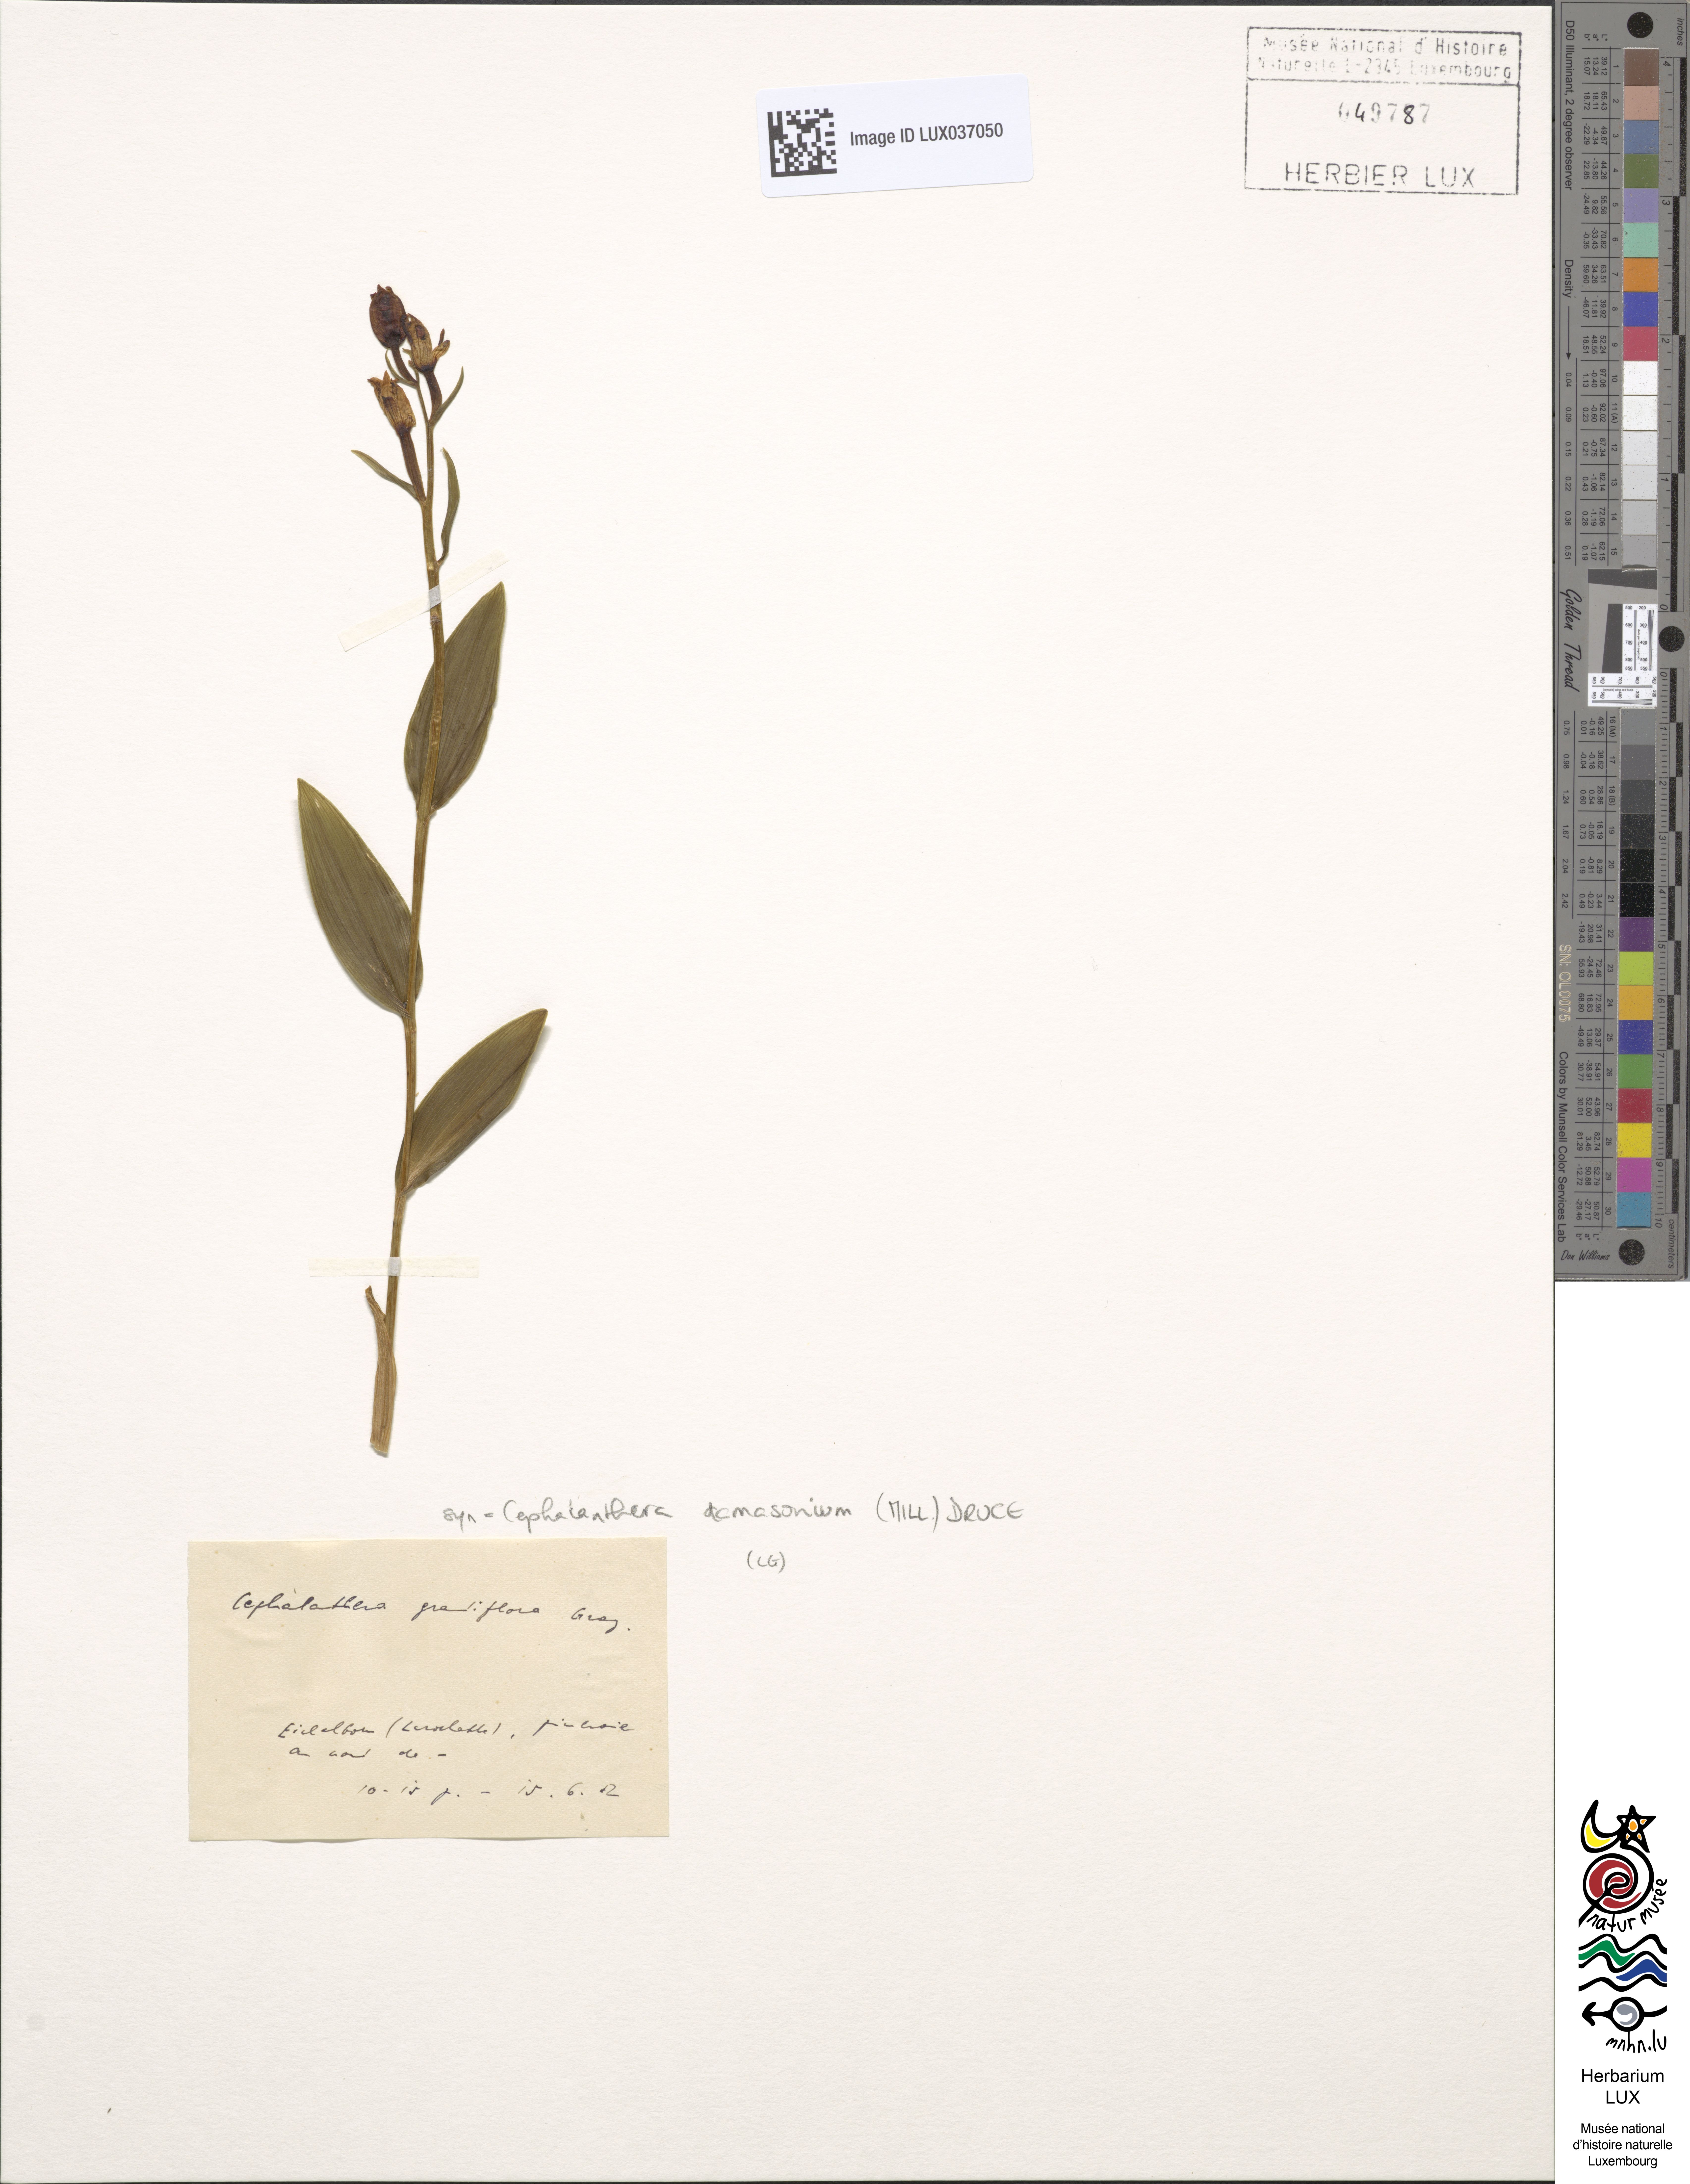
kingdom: Plantae
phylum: Tracheophyta
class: Liliopsida
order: Asparagales
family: Orchidaceae
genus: Cephalanthera
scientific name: Cephalanthera damasonium
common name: White helleborine
